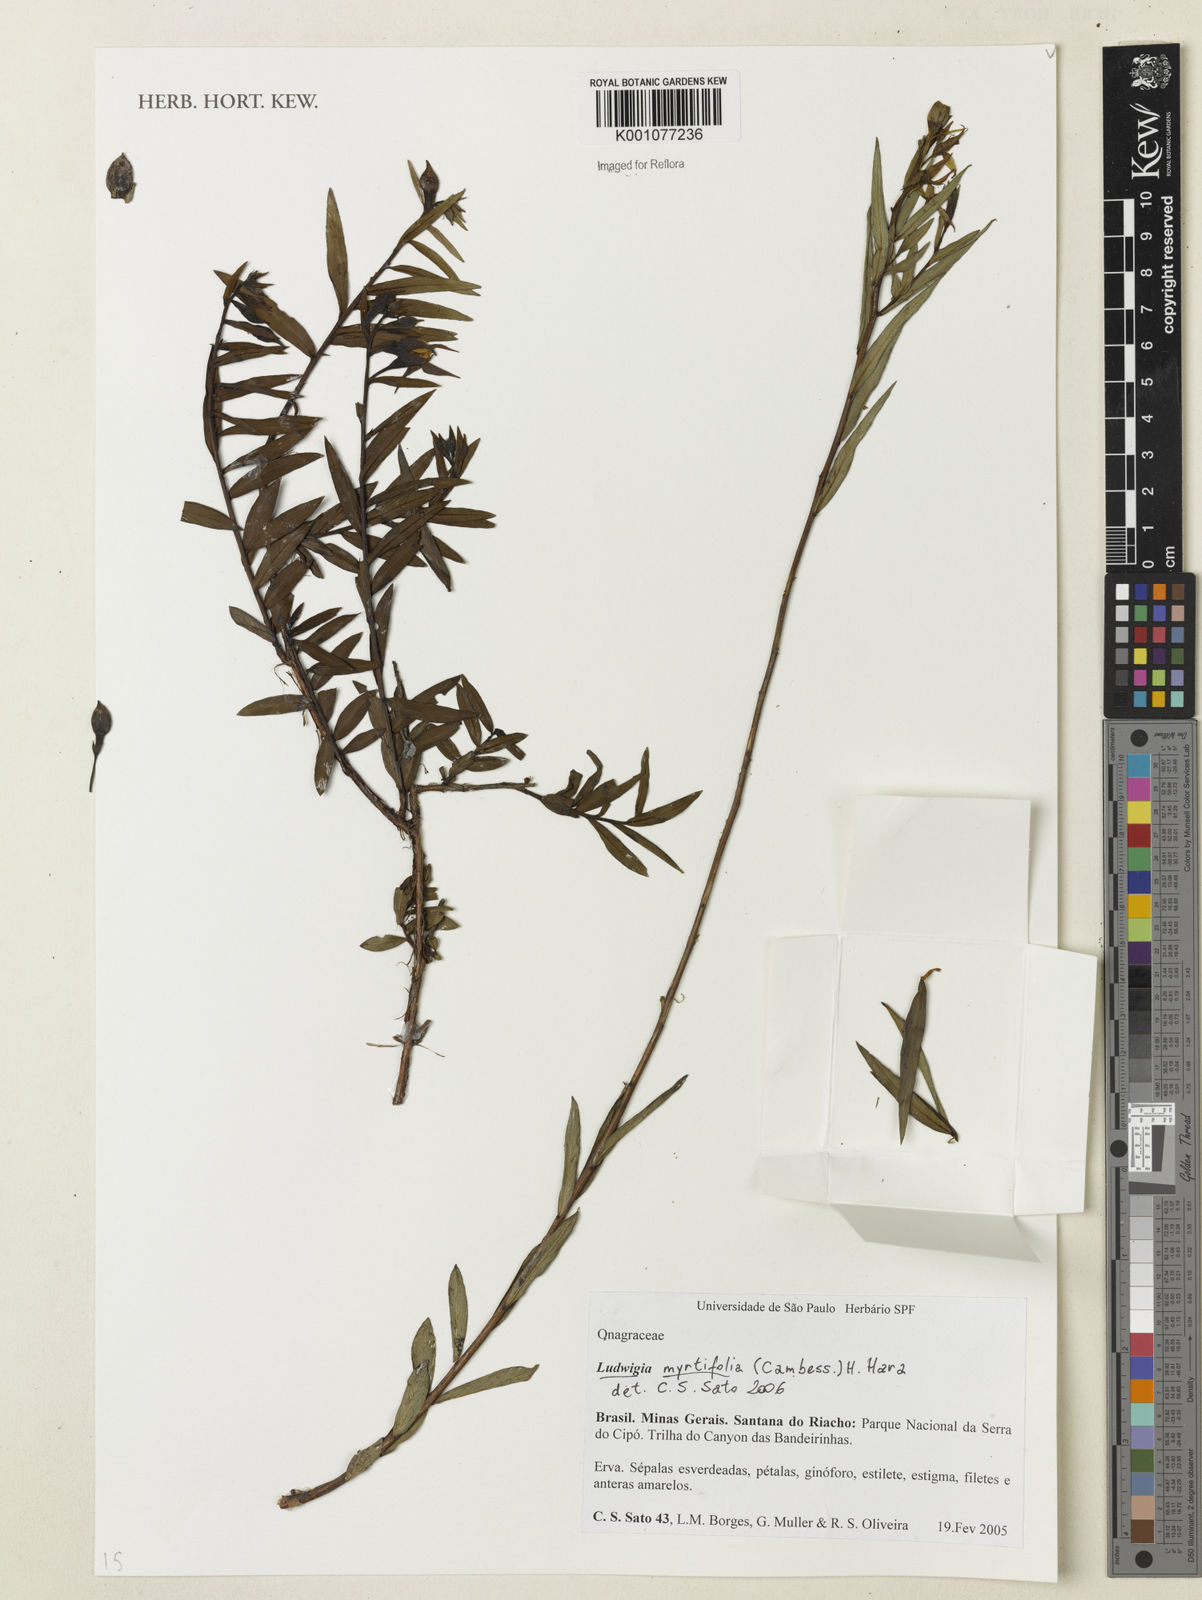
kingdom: Plantae
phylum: Tracheophyta
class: Magnoliopsida
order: Myrtales
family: Onagraceae
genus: Ludwigia
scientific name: Ludwigia martii
